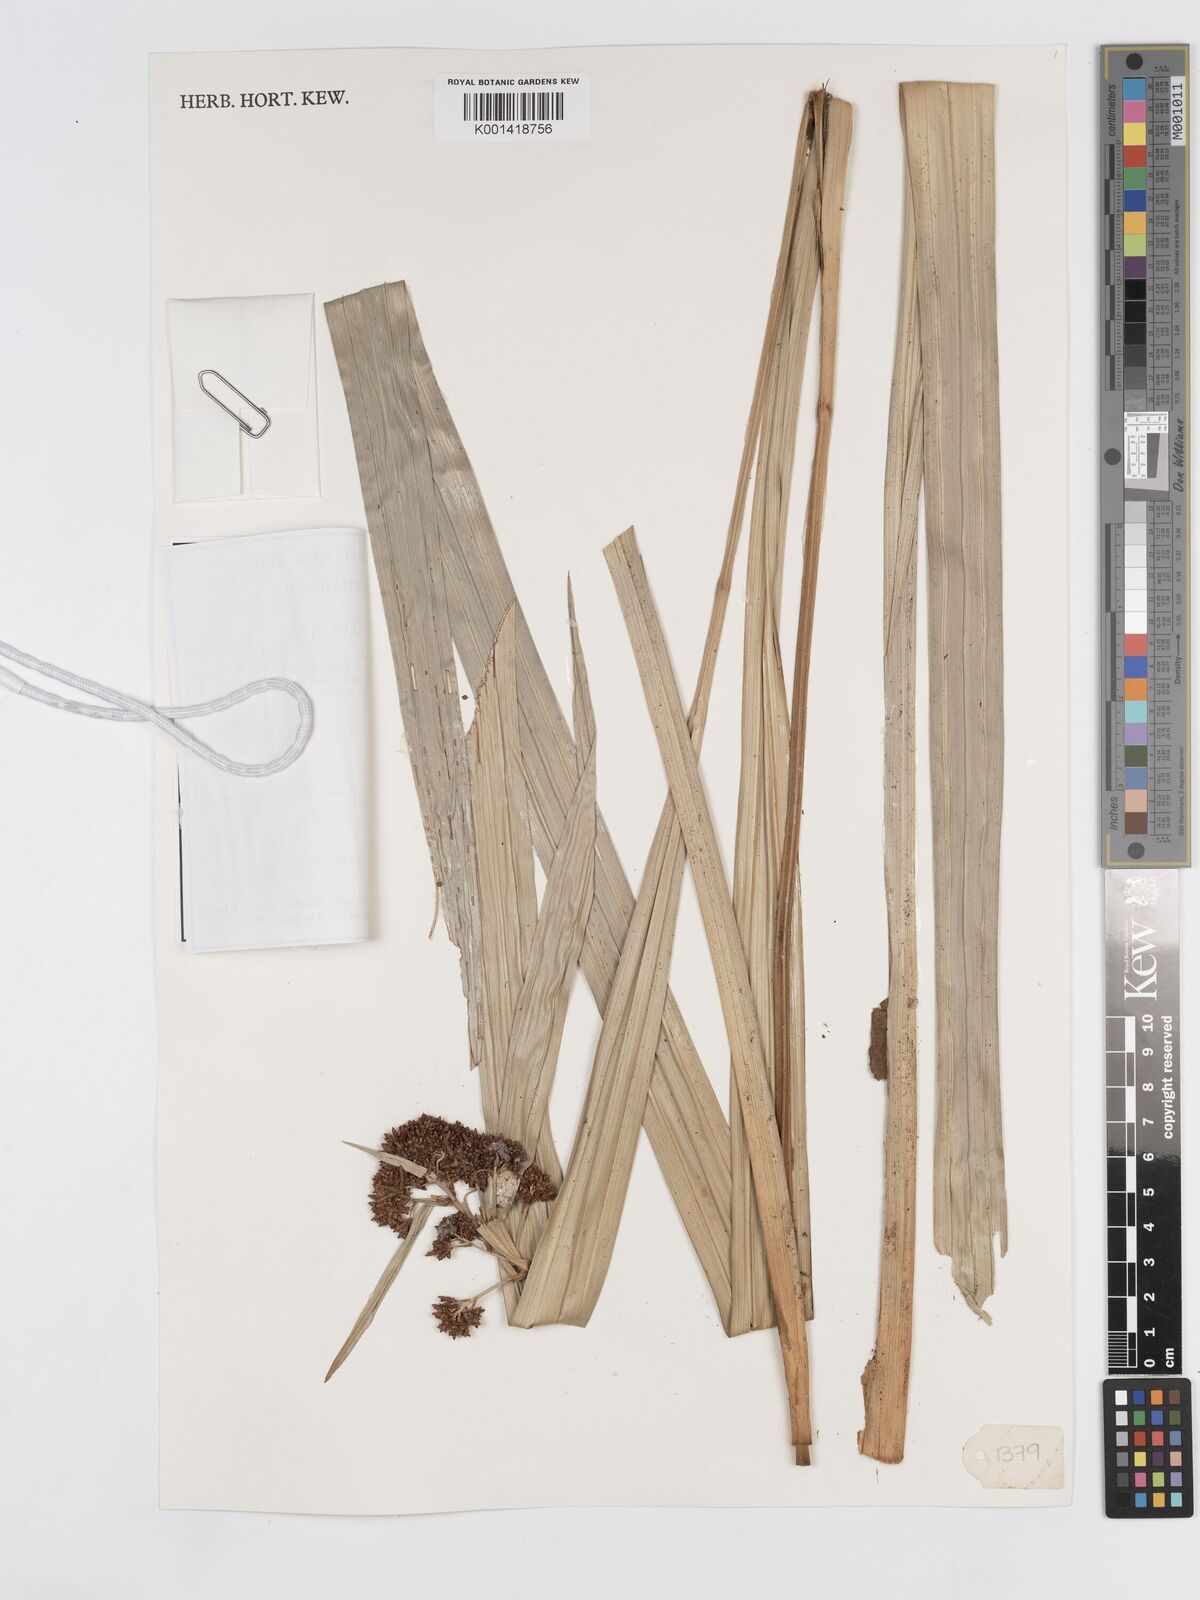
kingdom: Plantae
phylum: Tracheophyta
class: Liliopsida
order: Poales
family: Cyperaceae
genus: Hypolytrum
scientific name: Hypolytrum nemorum
